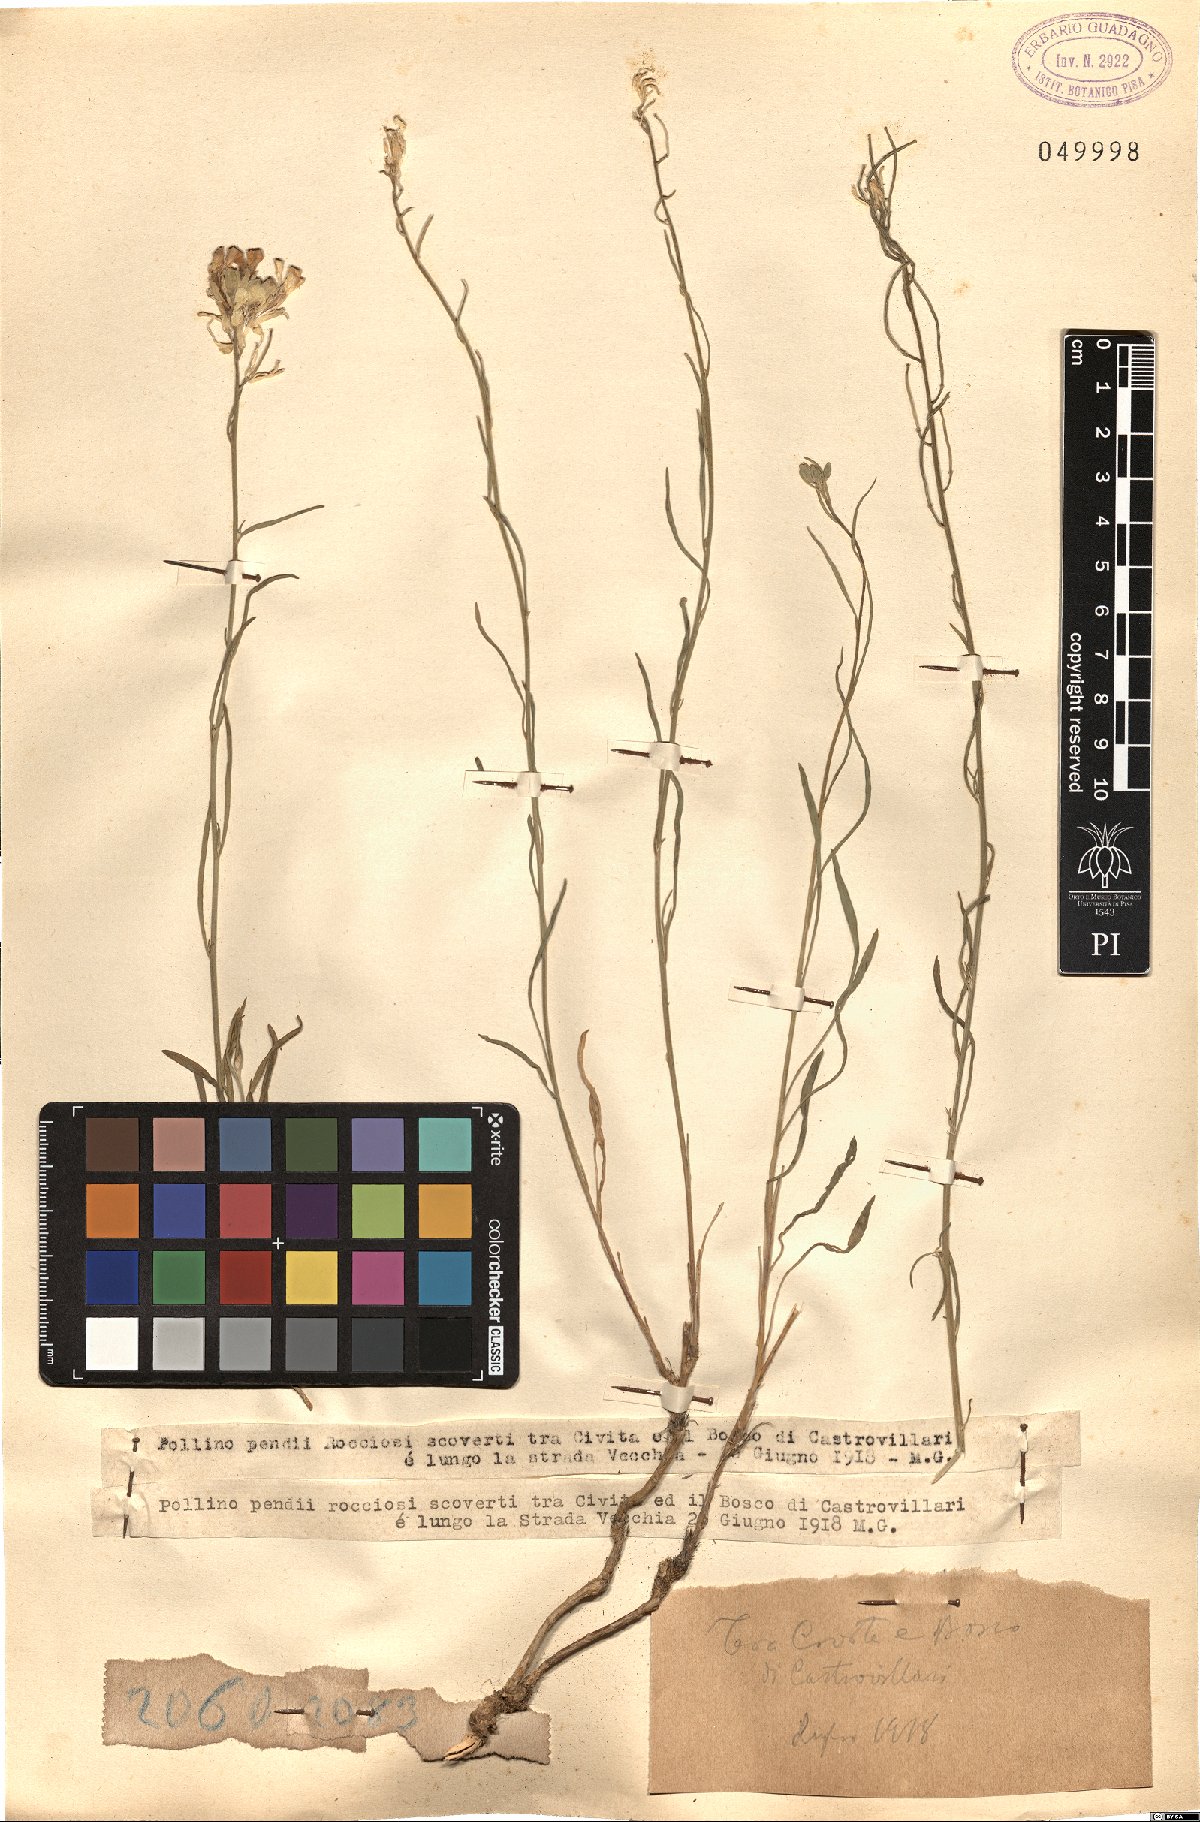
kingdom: Plantae
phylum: Tracheophyta
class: Magnoliopsida
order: Brassicales
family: Brassicaceae
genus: Erysimum
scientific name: Erysimum
